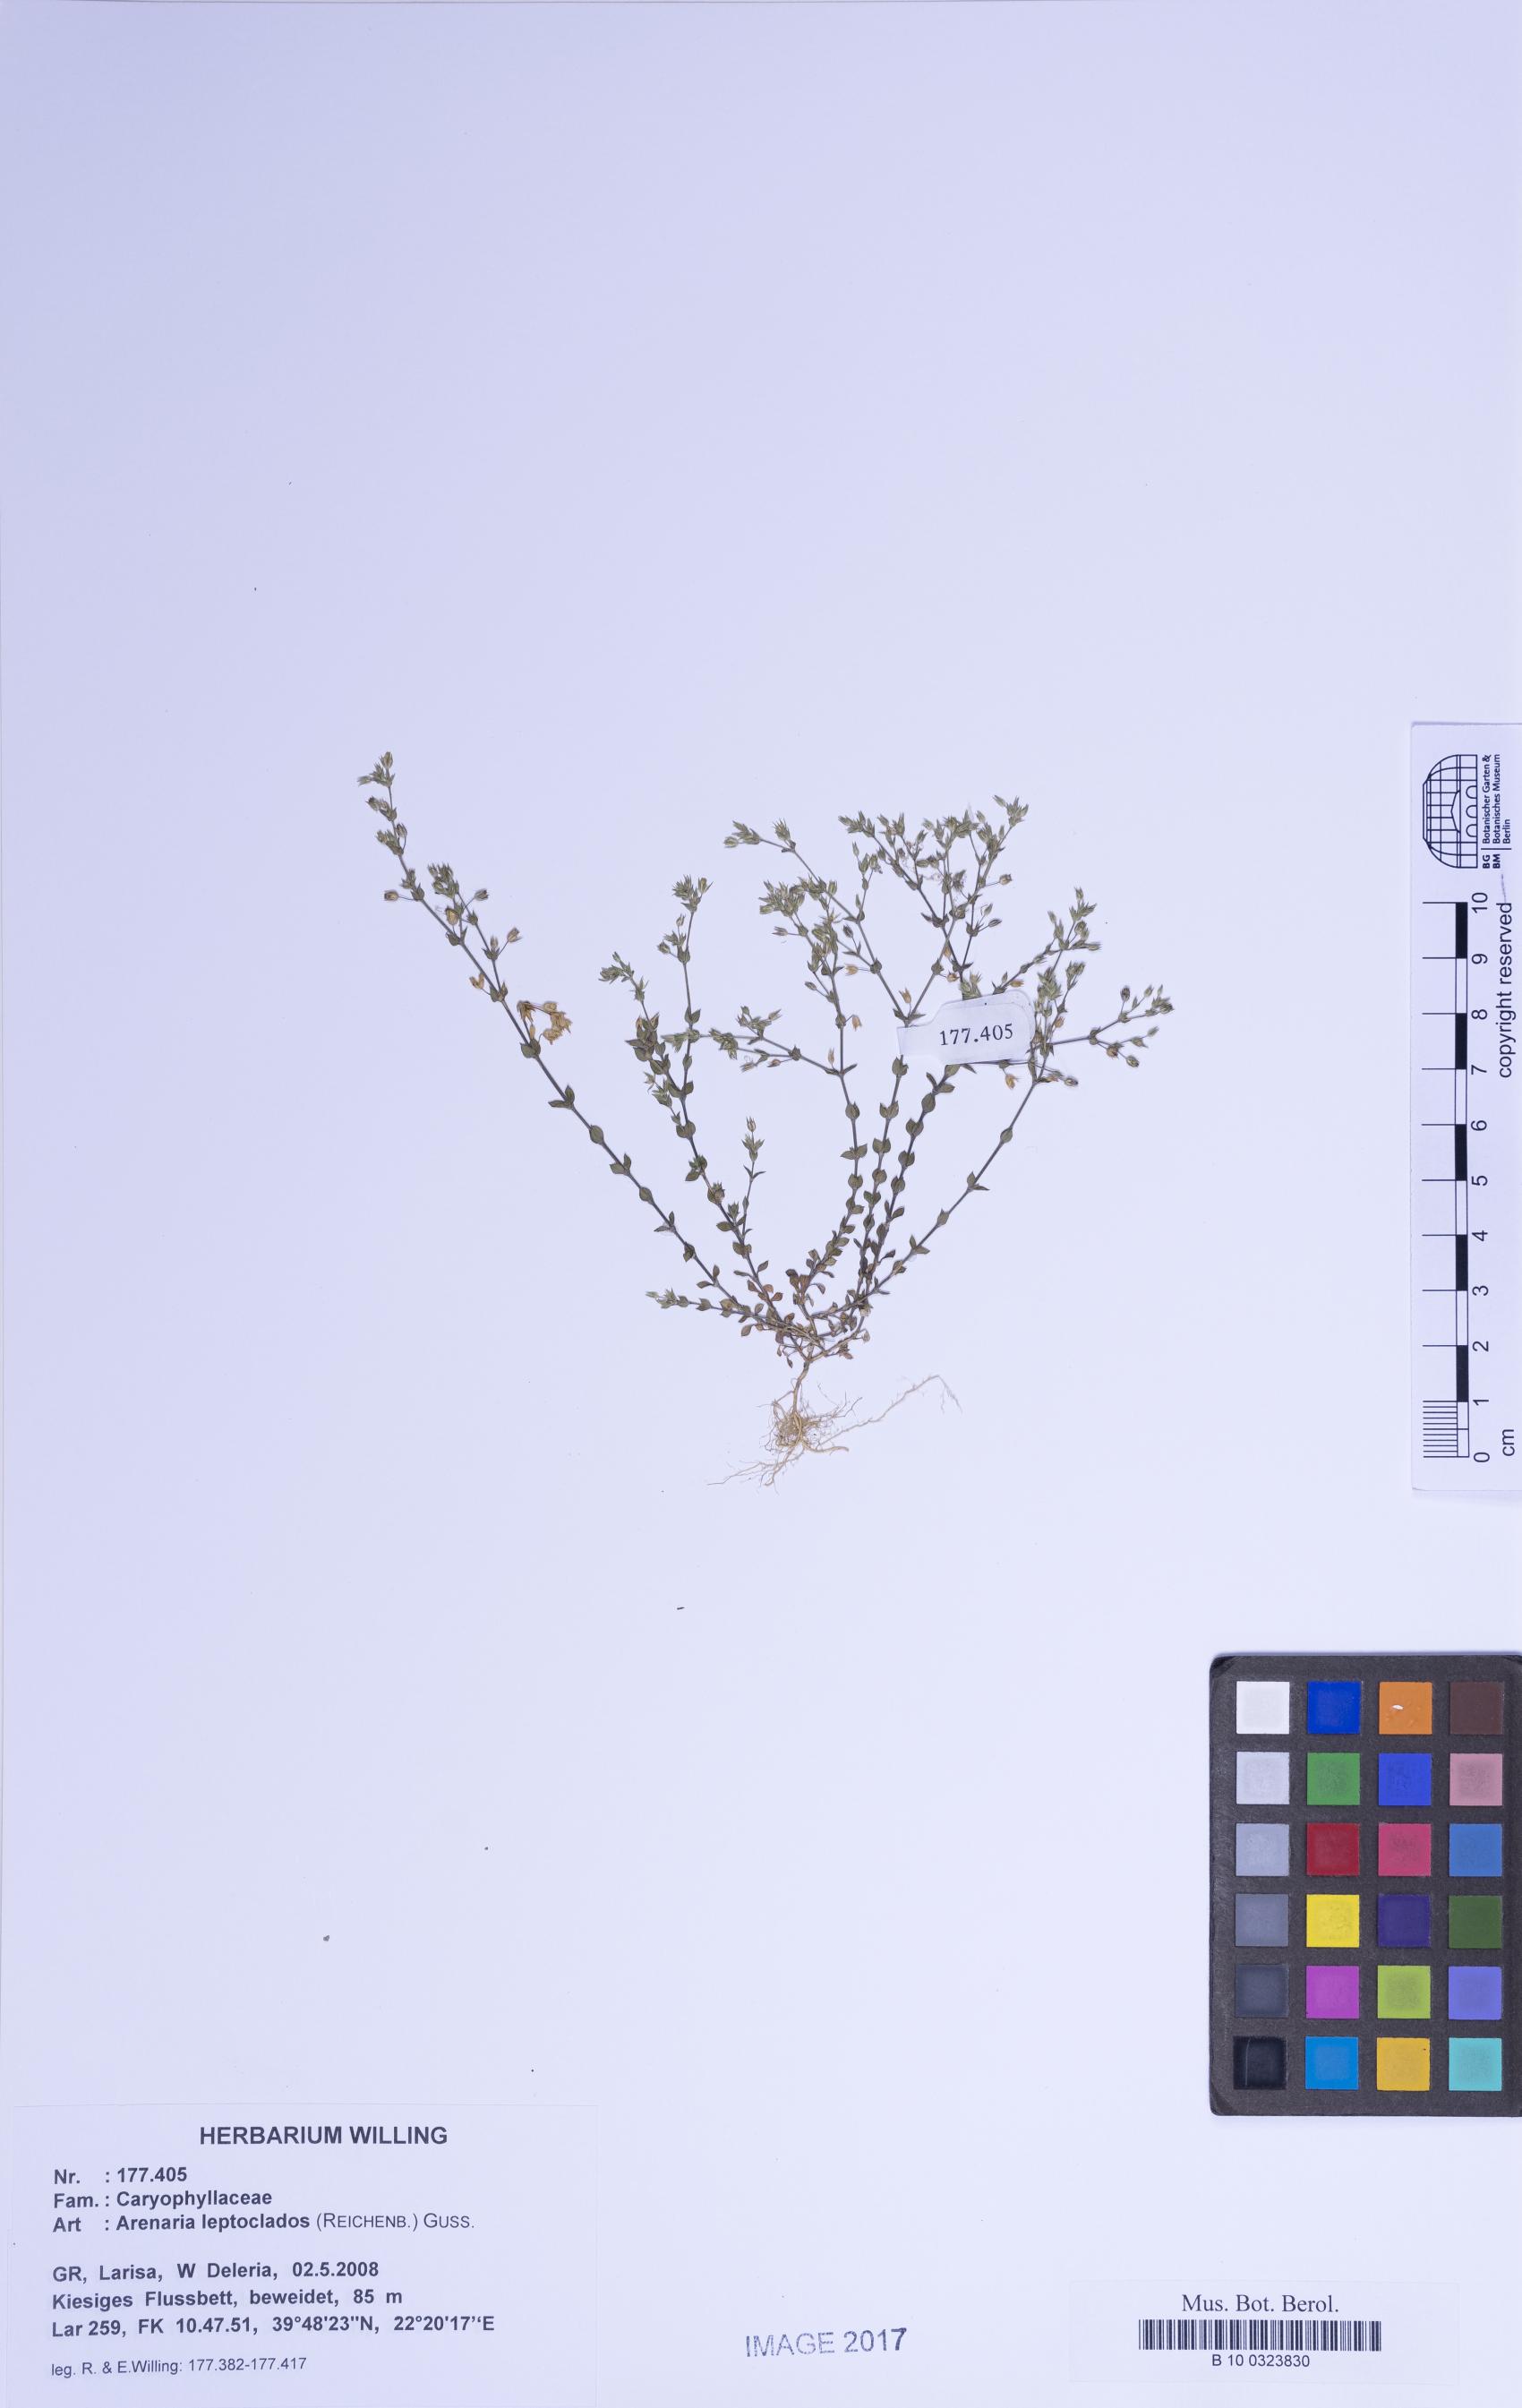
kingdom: Plantae
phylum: Tracheophyta
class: Magnoliopsida
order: Caryophyllales
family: Caryophyllaceae
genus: Arenaria
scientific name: Arenaria leptoclados
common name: Thyme-leaved sandwort
